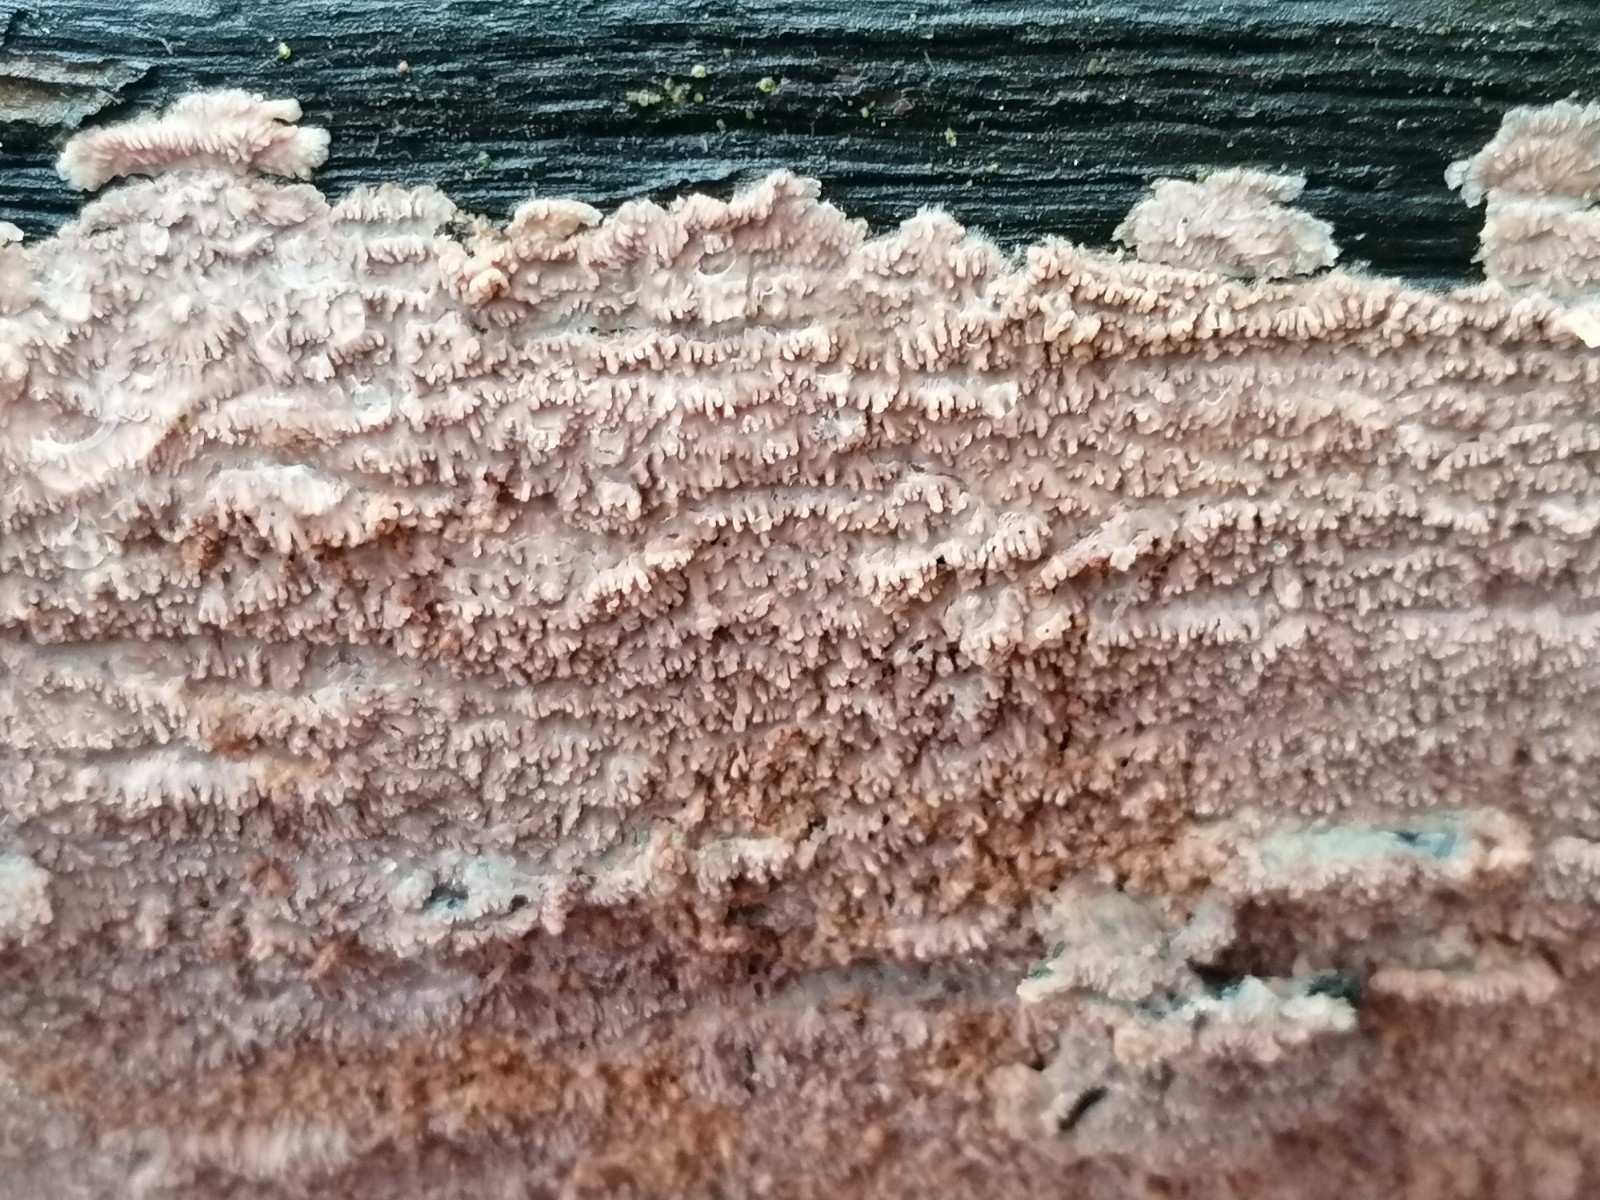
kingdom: Fungi
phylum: Basidiomycota
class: Agaricomycetes
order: Polyporales
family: Meruliaceae
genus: Phlebia
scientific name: Phlebia rufa
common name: ege-åresvamp
